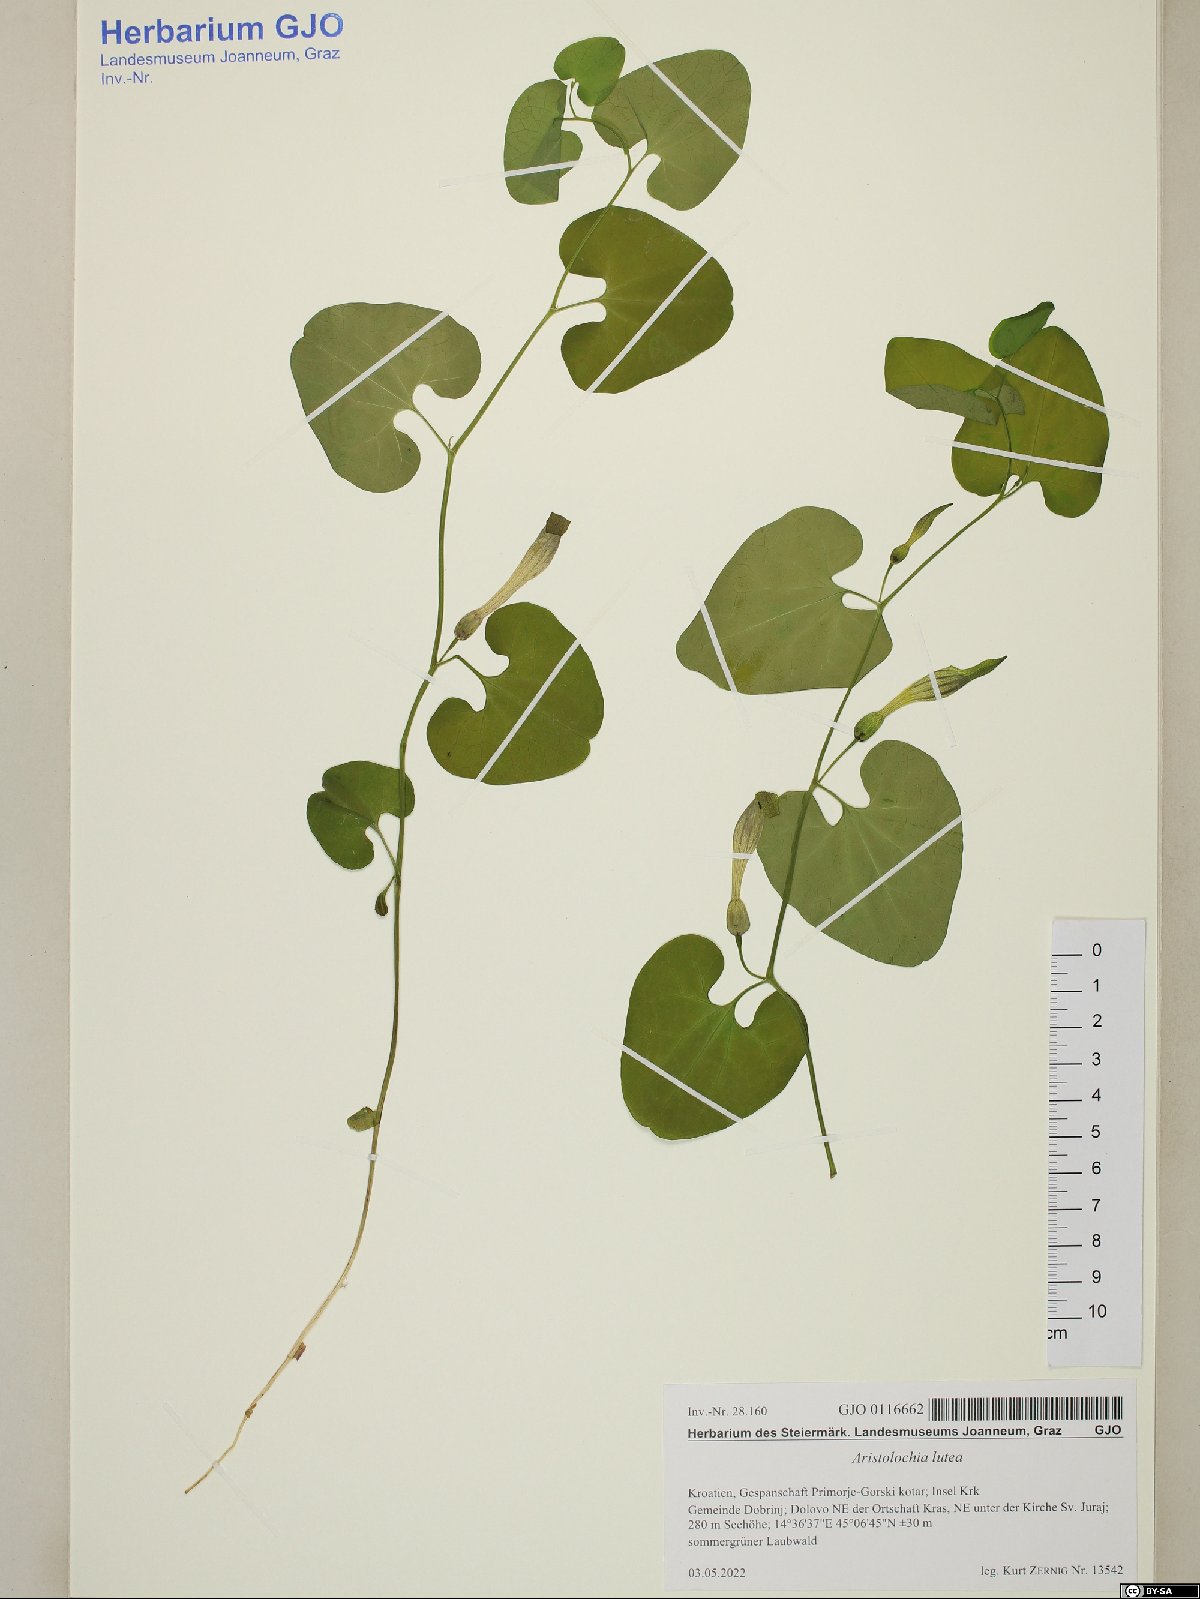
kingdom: Plantae
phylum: Tracheophyta
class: Magnoliopsida
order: Piperales
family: Aristolochiaceae
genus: Aristolochia
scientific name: Aristolochia lutea
